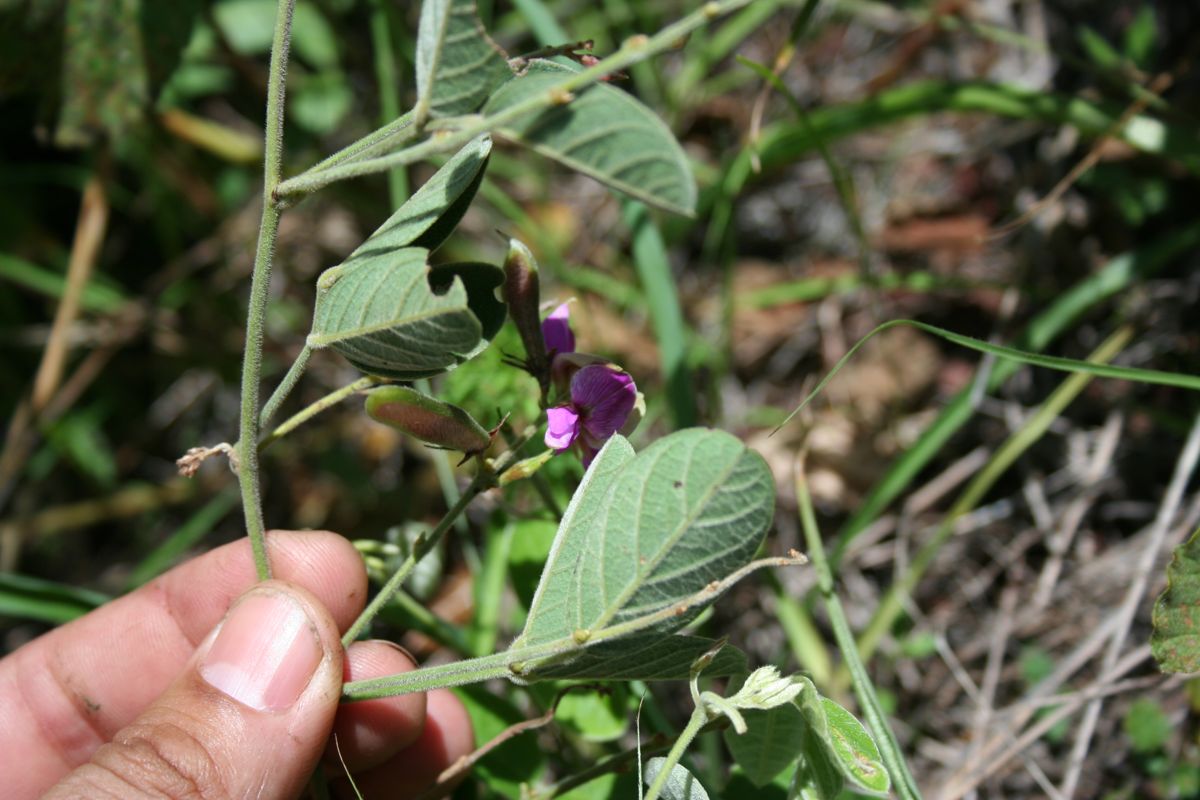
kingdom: Plantae
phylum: Tracheophyta
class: Magnoliopsida
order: Fabales
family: Fabaceae
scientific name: Fabaceae
